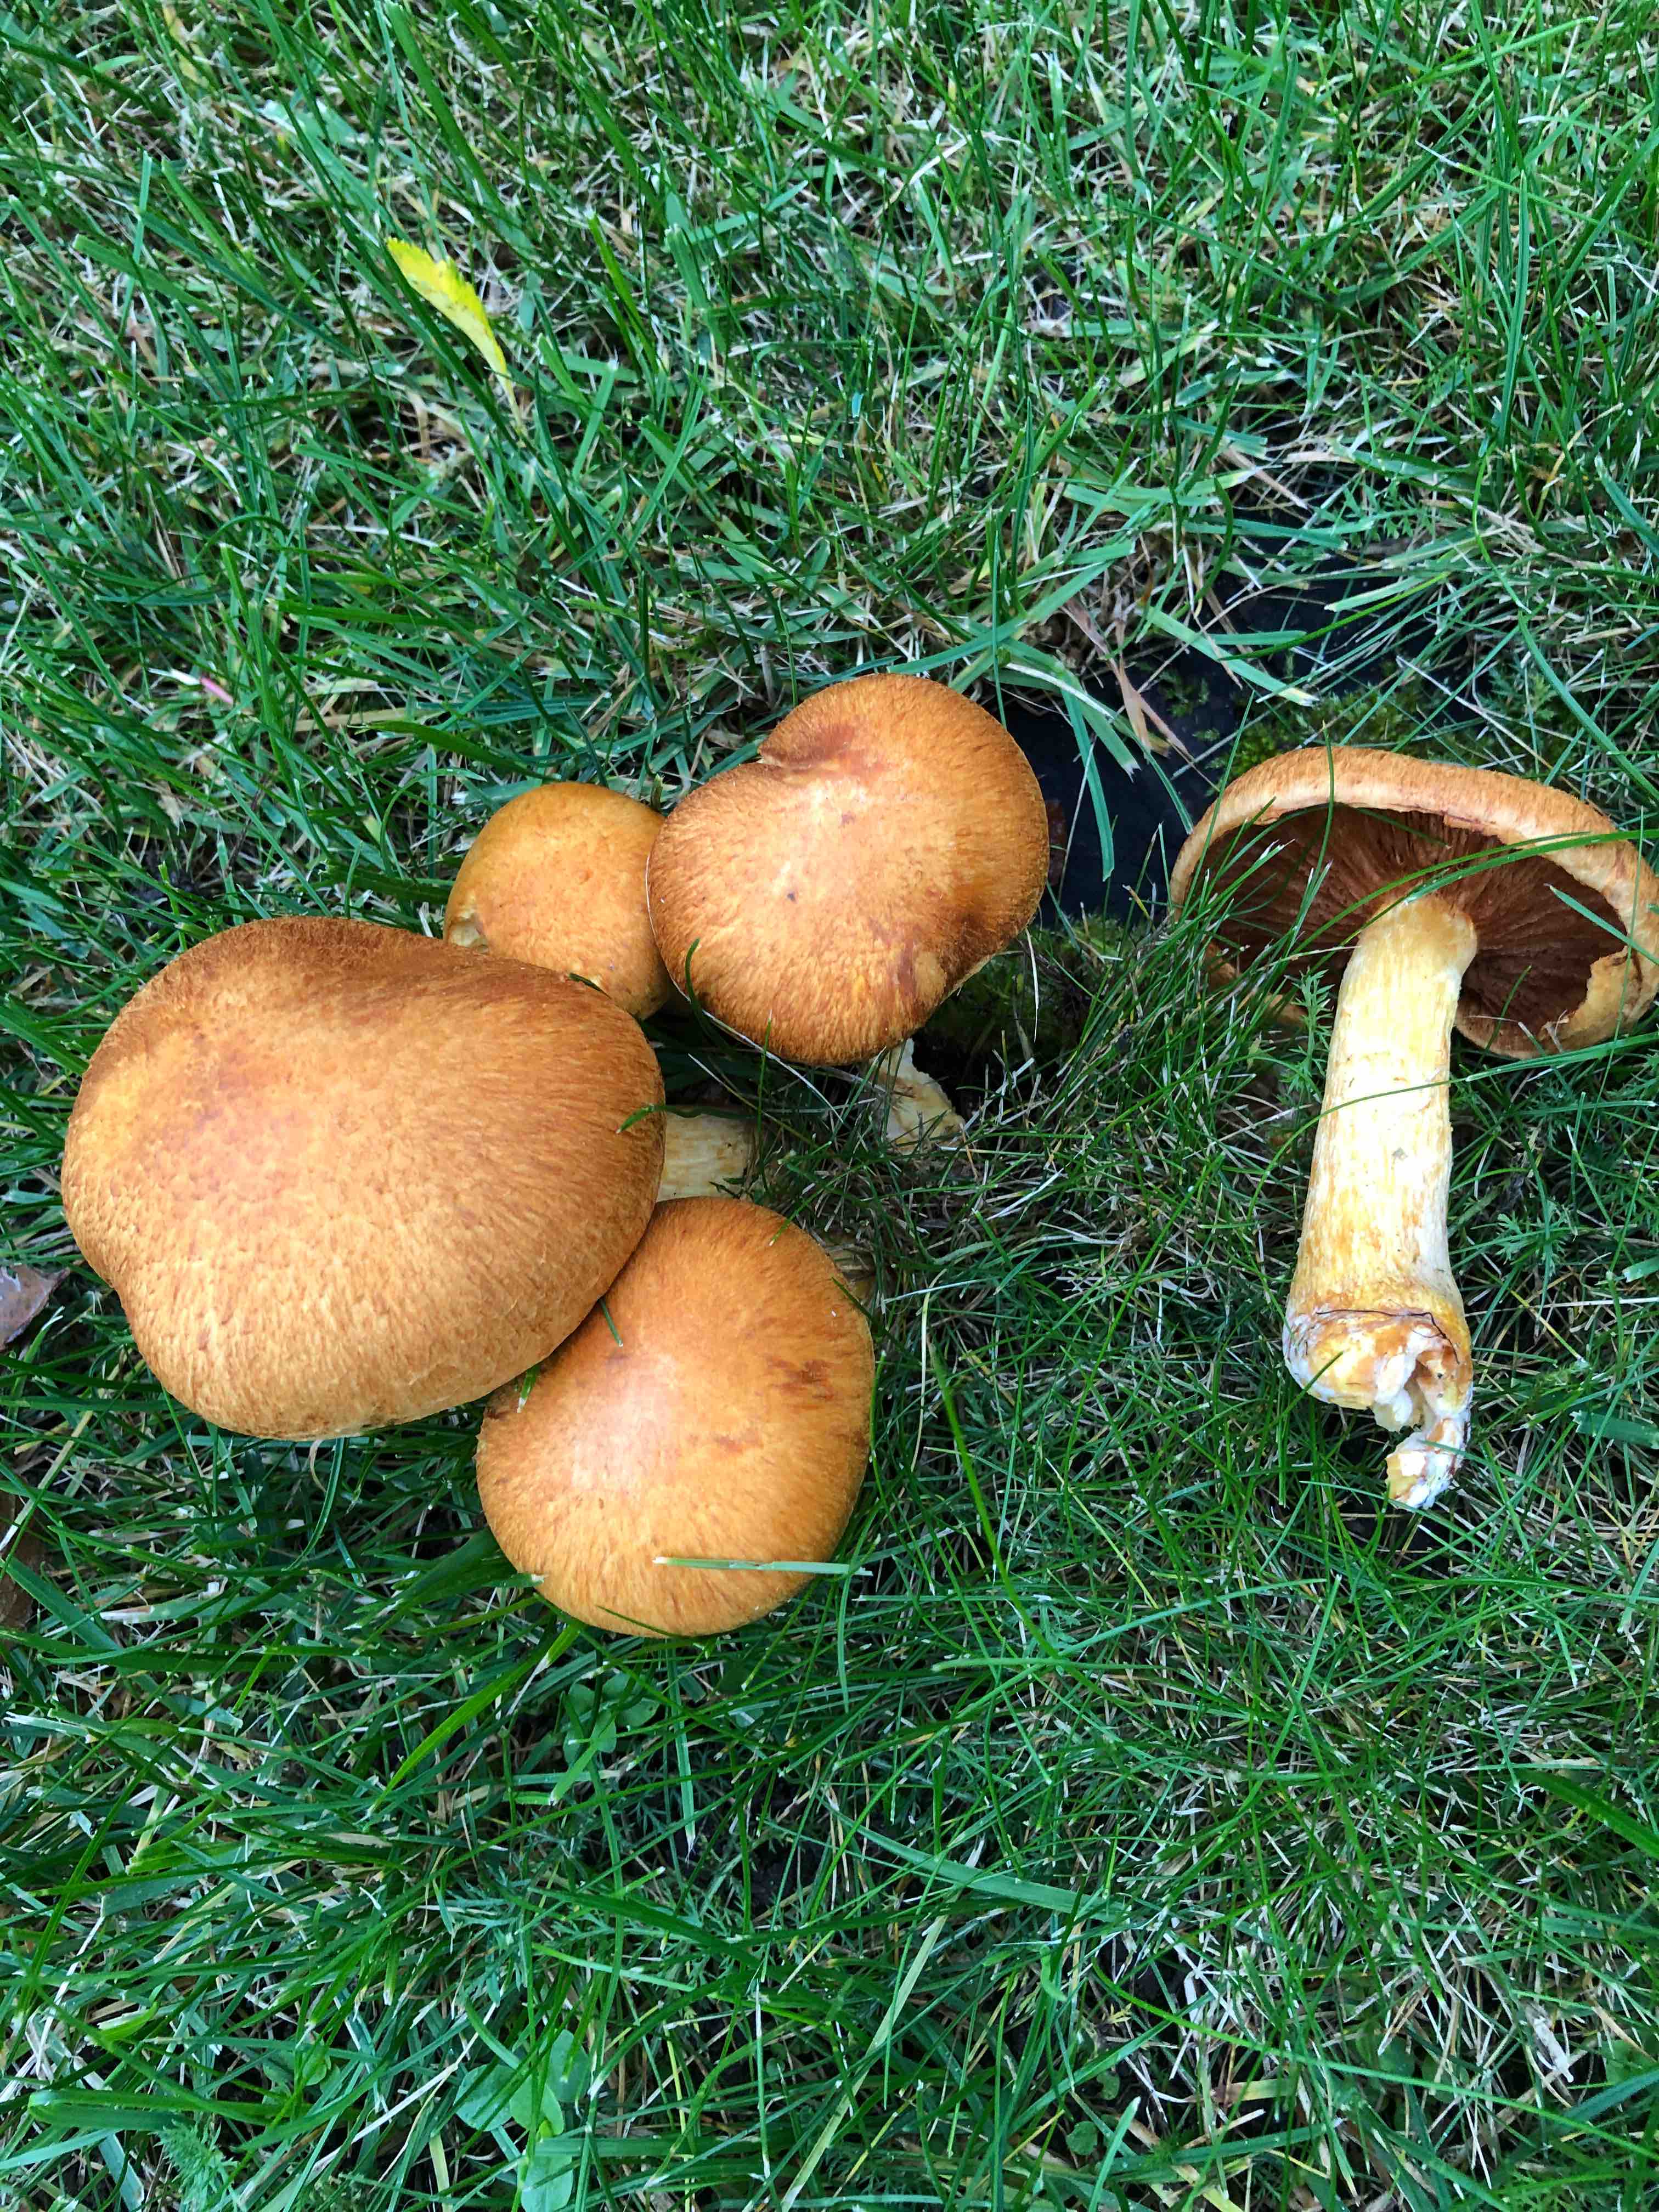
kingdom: Fungi
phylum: Basidiomycota
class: Agaricomycetes
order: Agaricales
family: Hymenogastraceae
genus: Gymnopilus
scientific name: Gymnopilus spectabilis
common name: fibret flammehat
